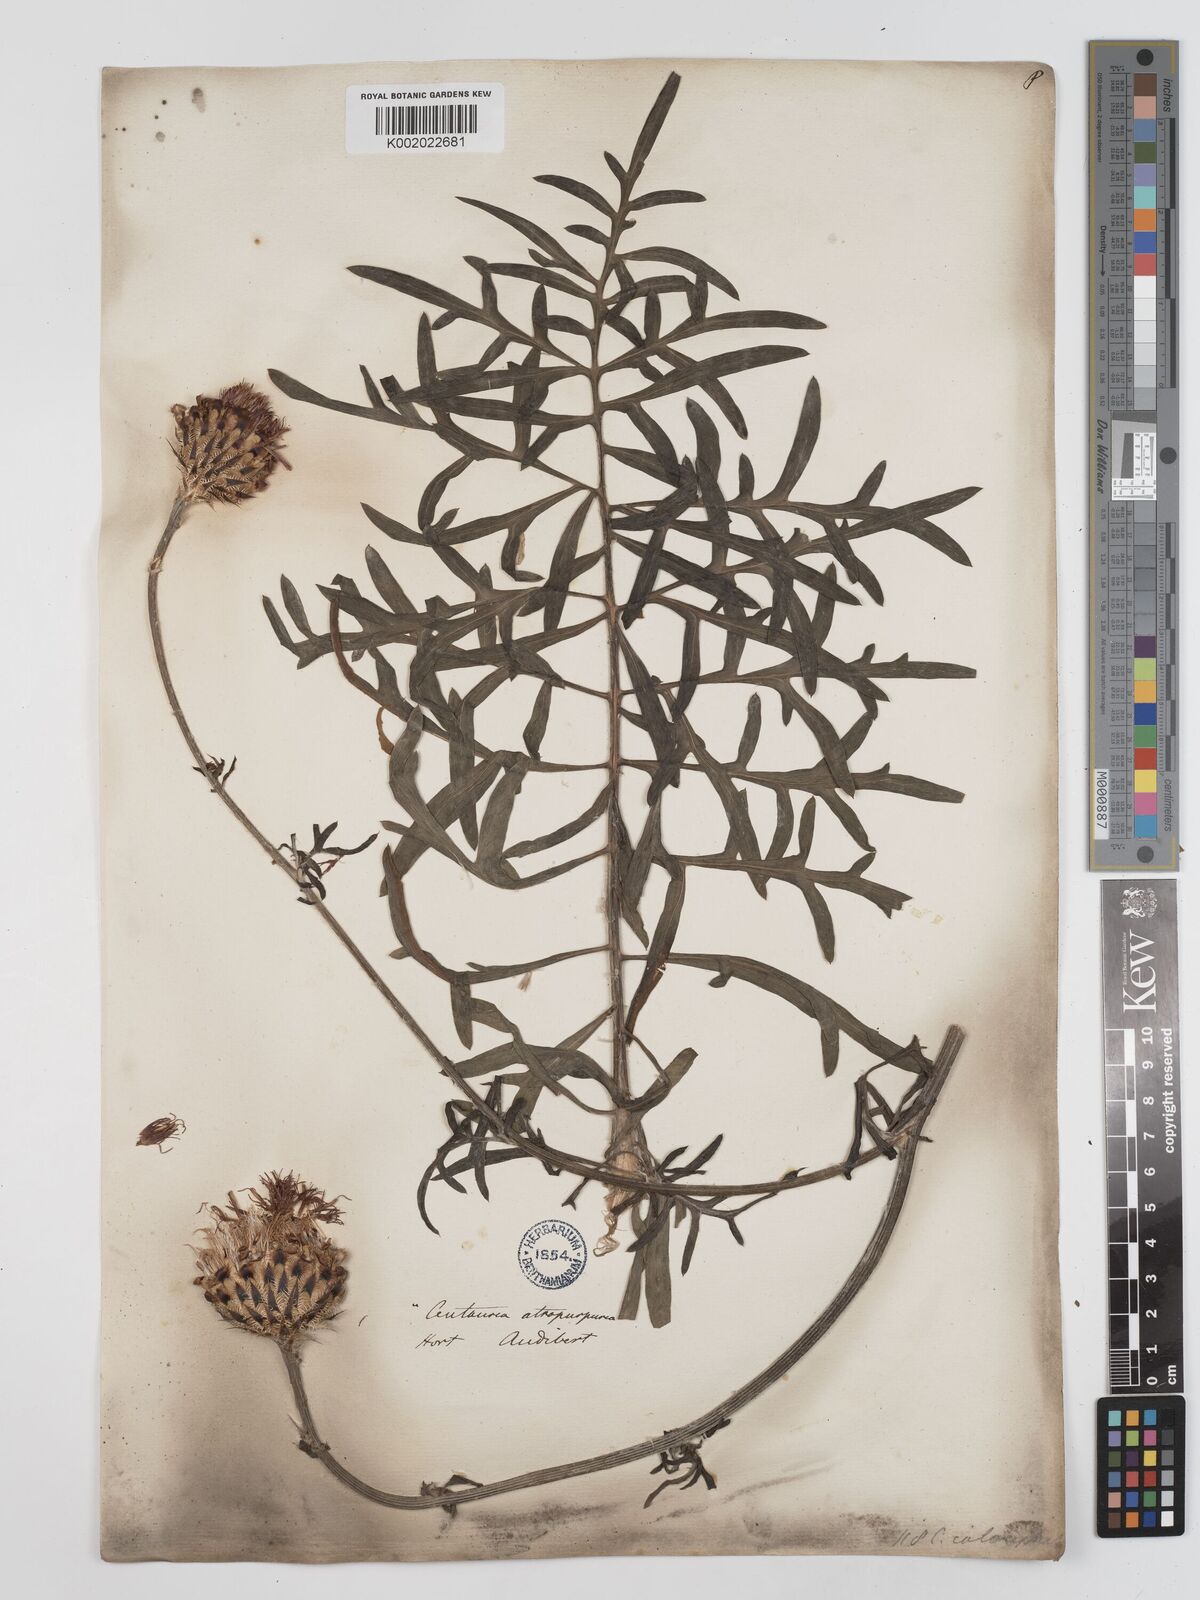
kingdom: Plantae
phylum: Tracheophyta
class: Magnoliopsida
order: Asterales
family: Asteraceae
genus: Centaurea
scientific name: Centaurea calocephala
